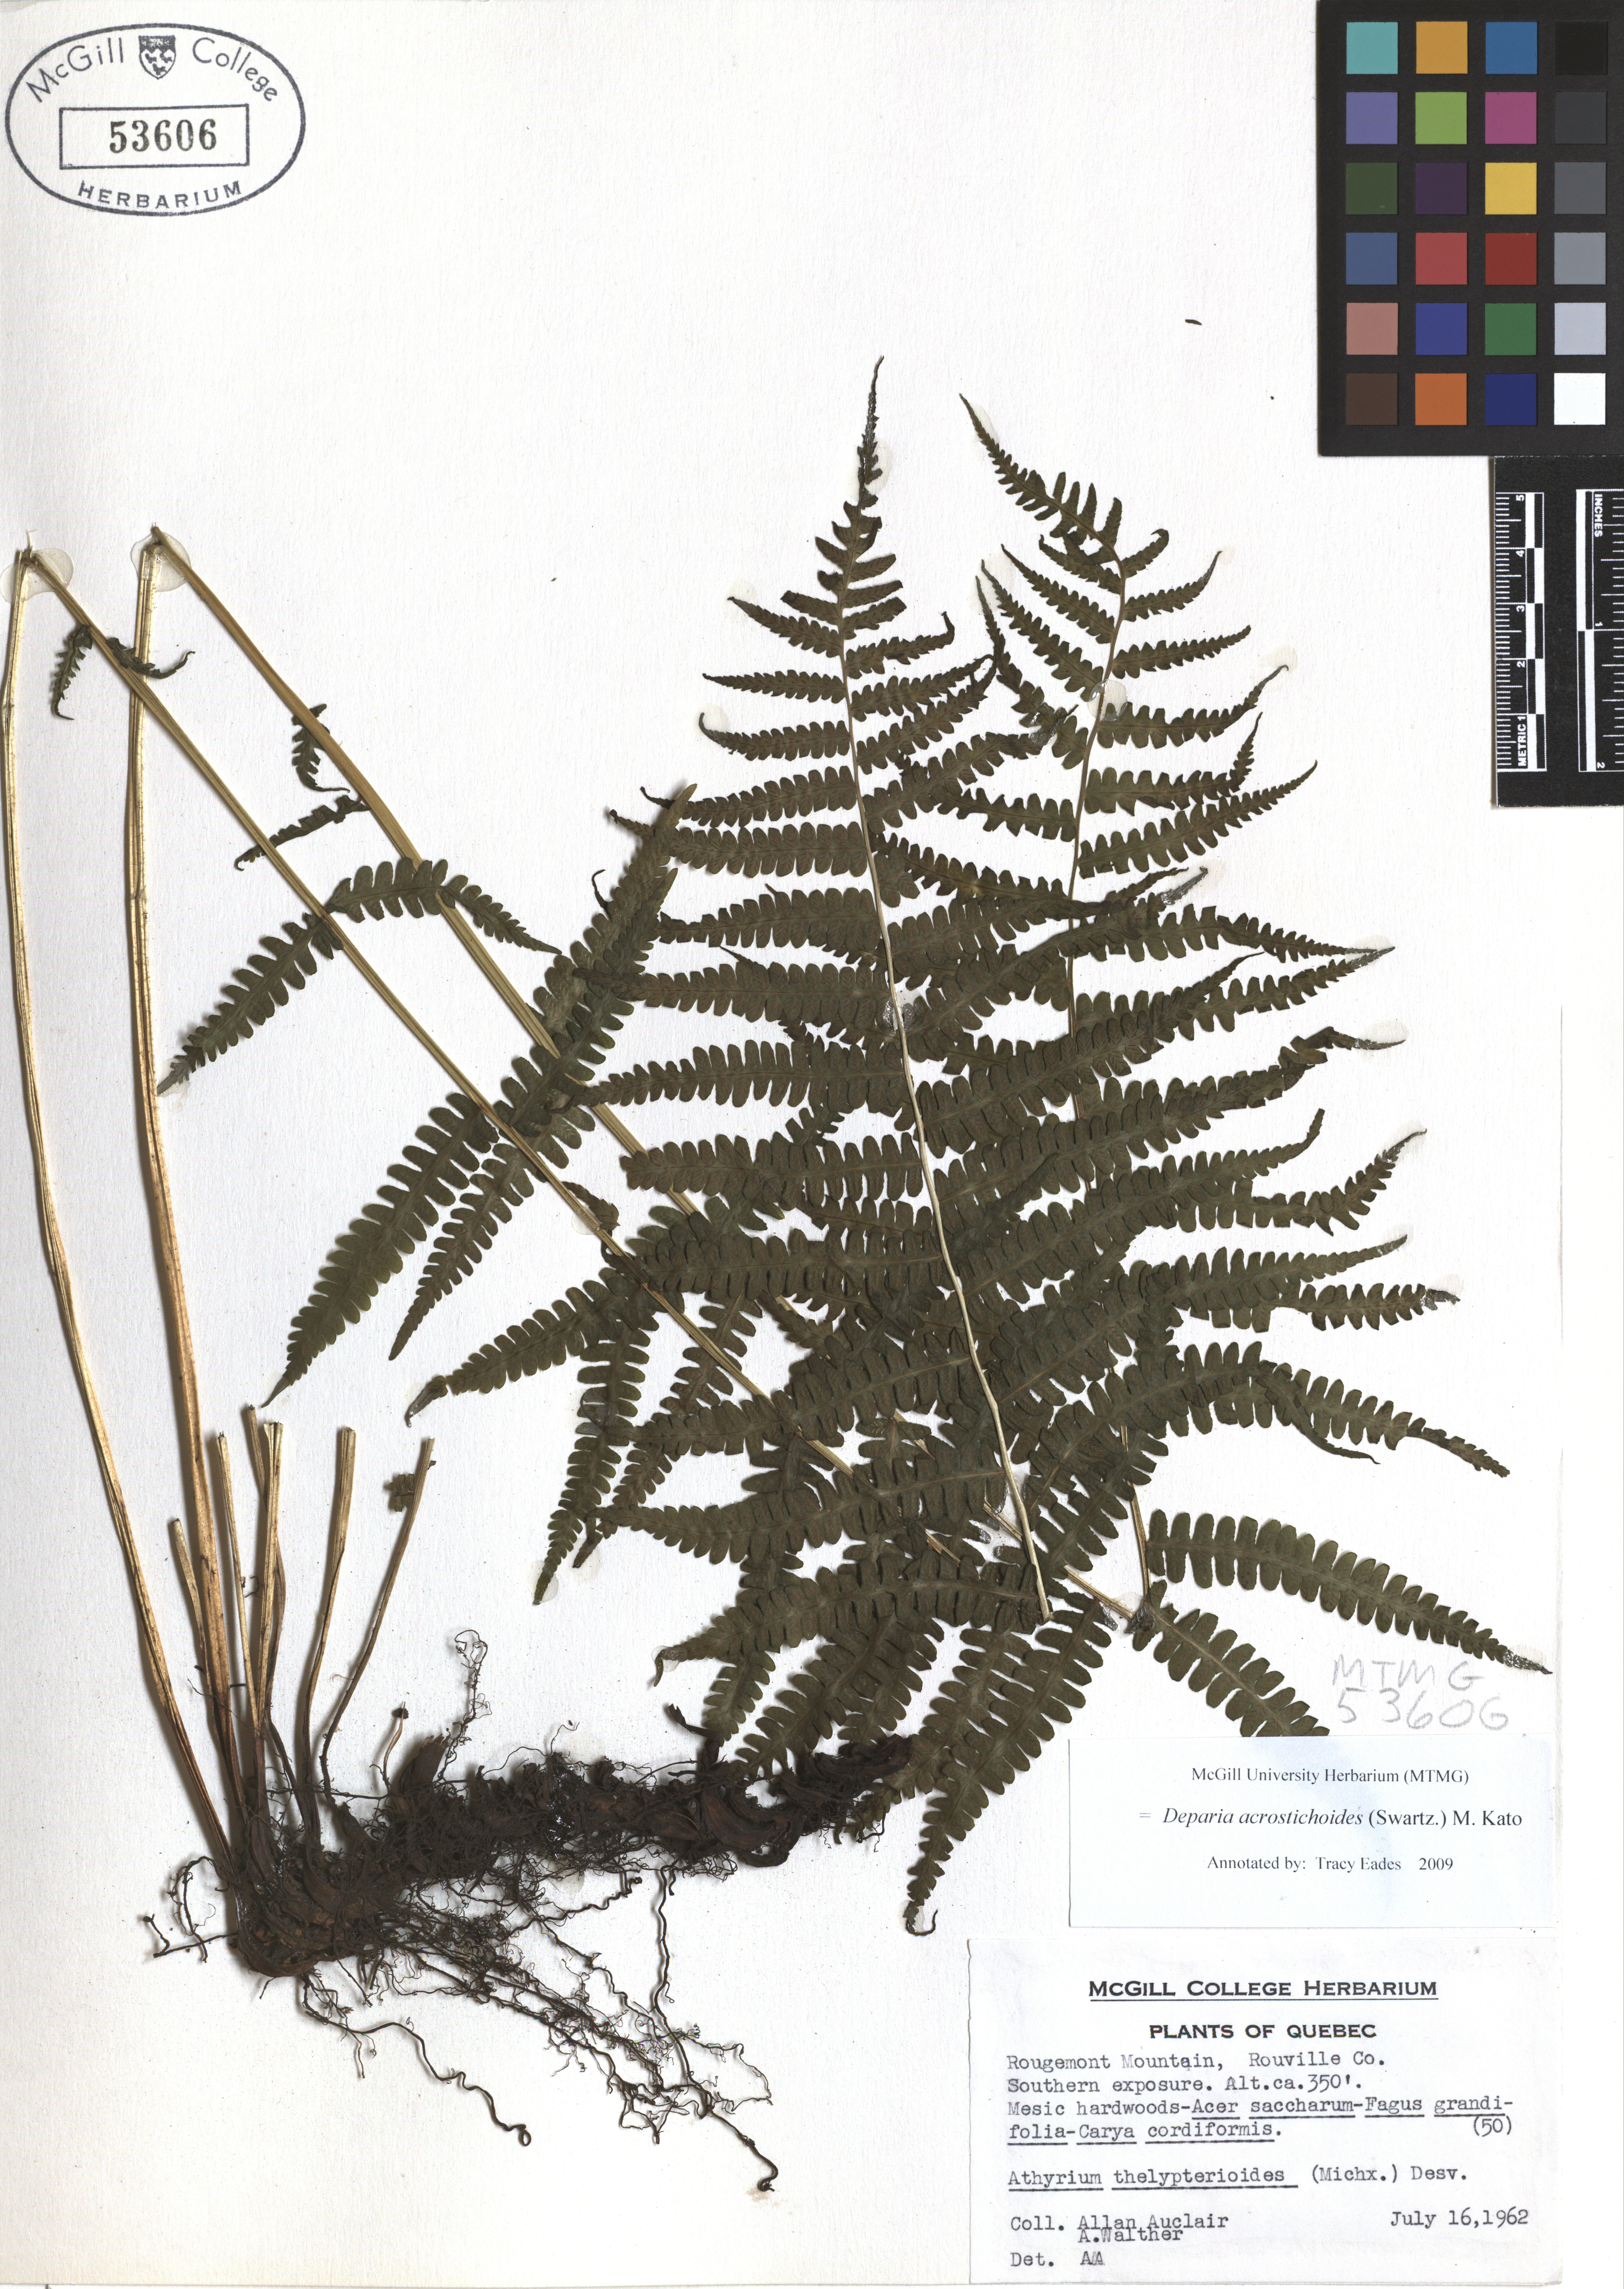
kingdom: Plantae
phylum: Tracheophyta
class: Polypodiopsida
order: Polypodiales
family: Athyriaceae
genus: Deparia
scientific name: Deparia acrostichoides
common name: Silver false spleenwort
